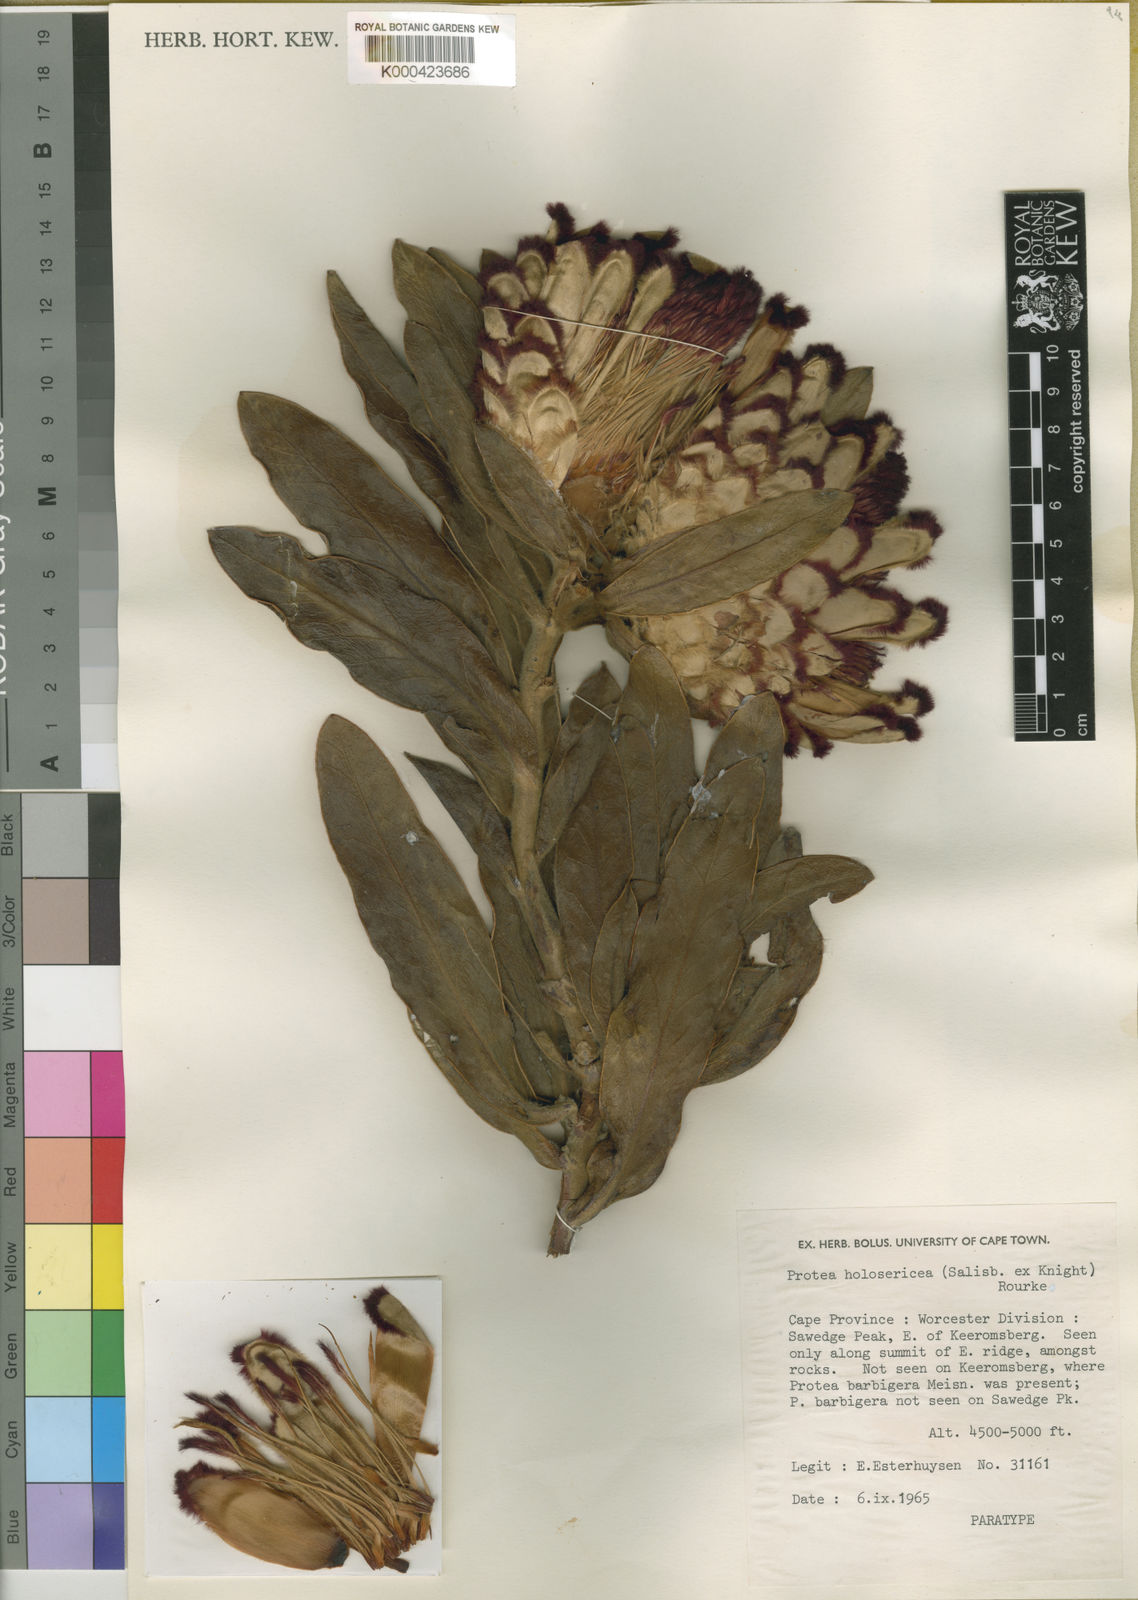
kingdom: Plantae
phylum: Tracheophyta
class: Magnoliopsida
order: Proteales
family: Proteaceae
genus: Protea
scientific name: Protea holosericea
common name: Saw-edge sugarbush
